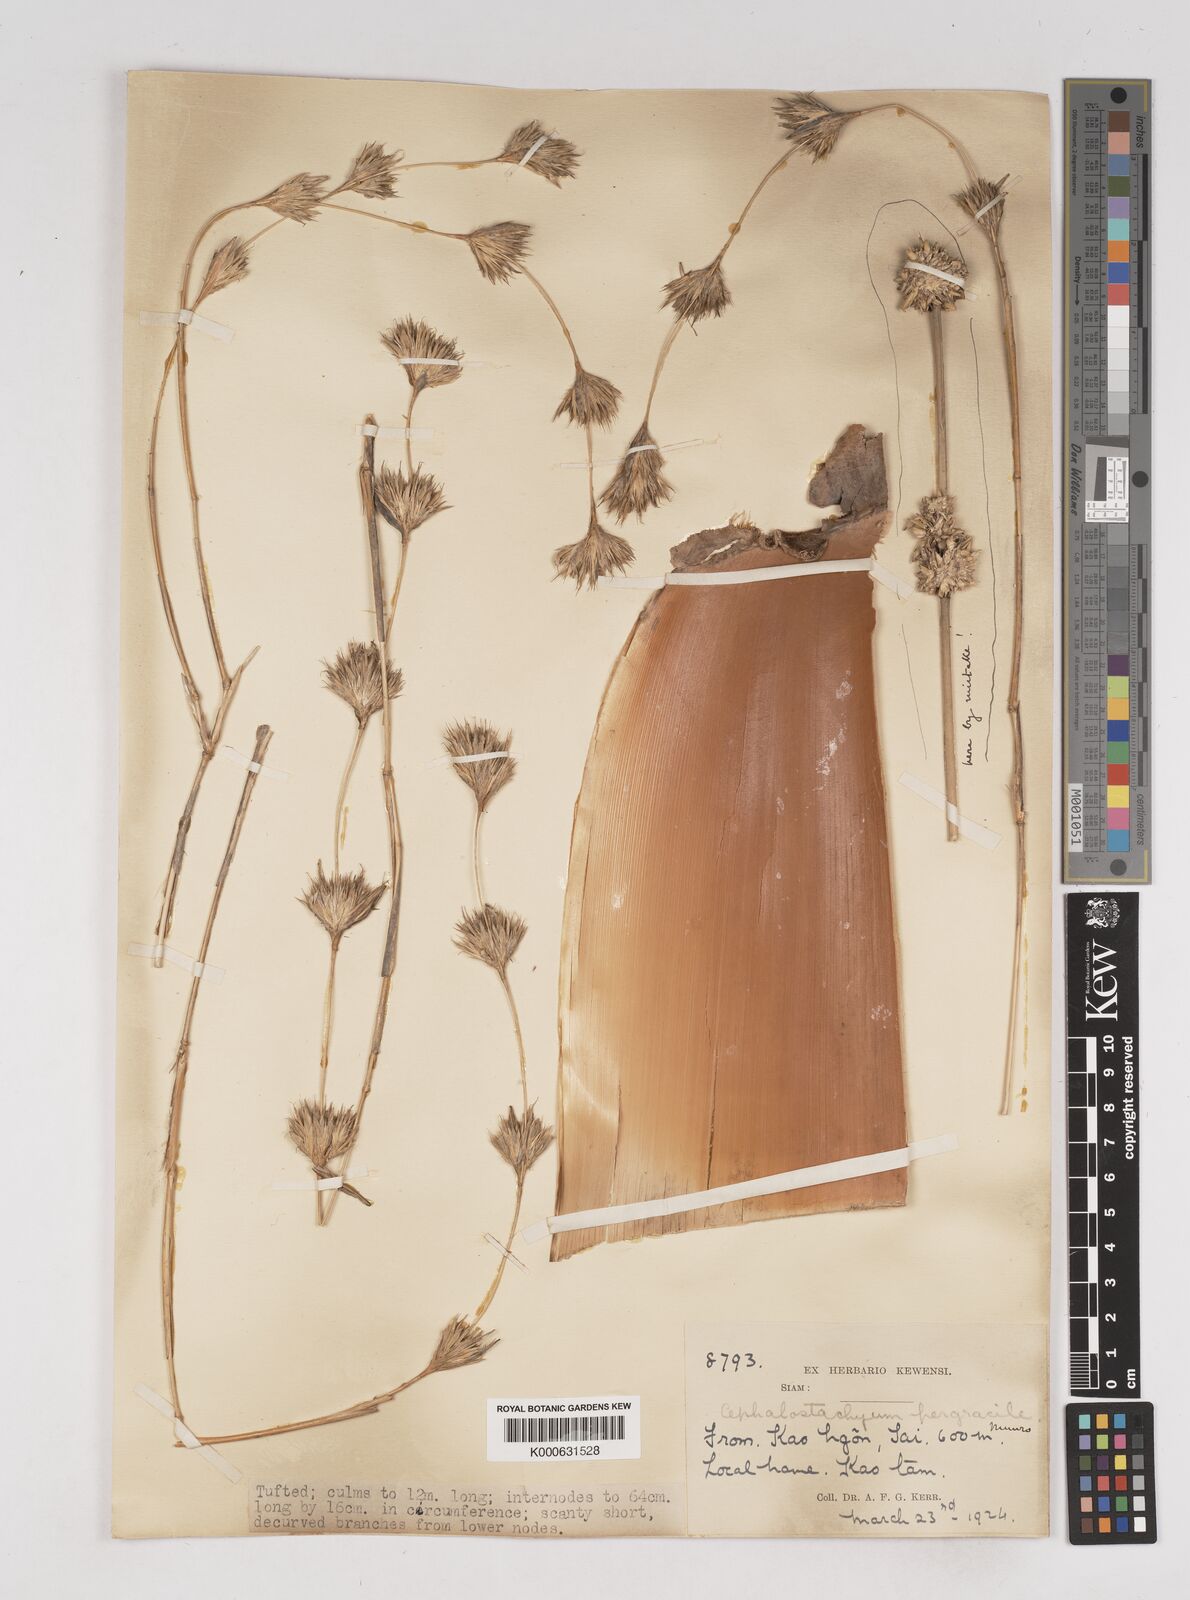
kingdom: Plantae
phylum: Tracheophyta
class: Liliopsida
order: Poales
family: Poaceae
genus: Schizostachyum
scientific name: Schizostachyum pergracile
